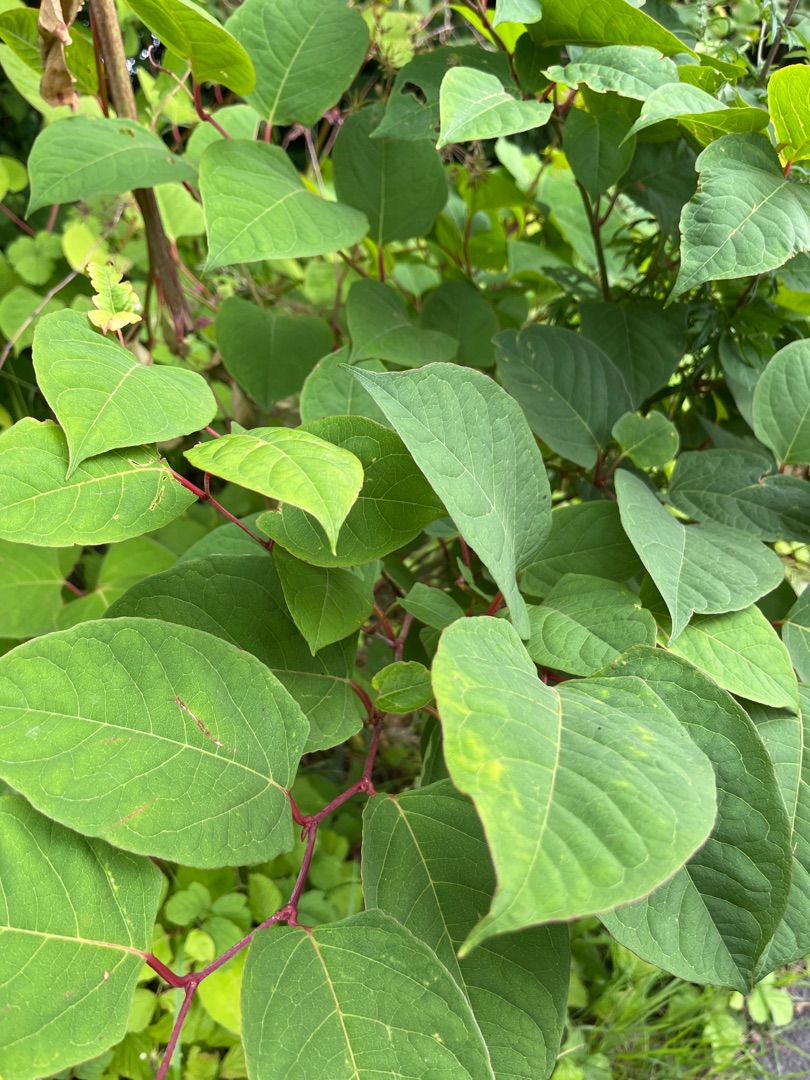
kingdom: Plantae
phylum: Tracheophyta
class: Magnoliopsida
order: Caryophyllales
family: Polygonaceae
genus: Reynoutria
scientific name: Reynoutria japonica
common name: Japan-pileurt
